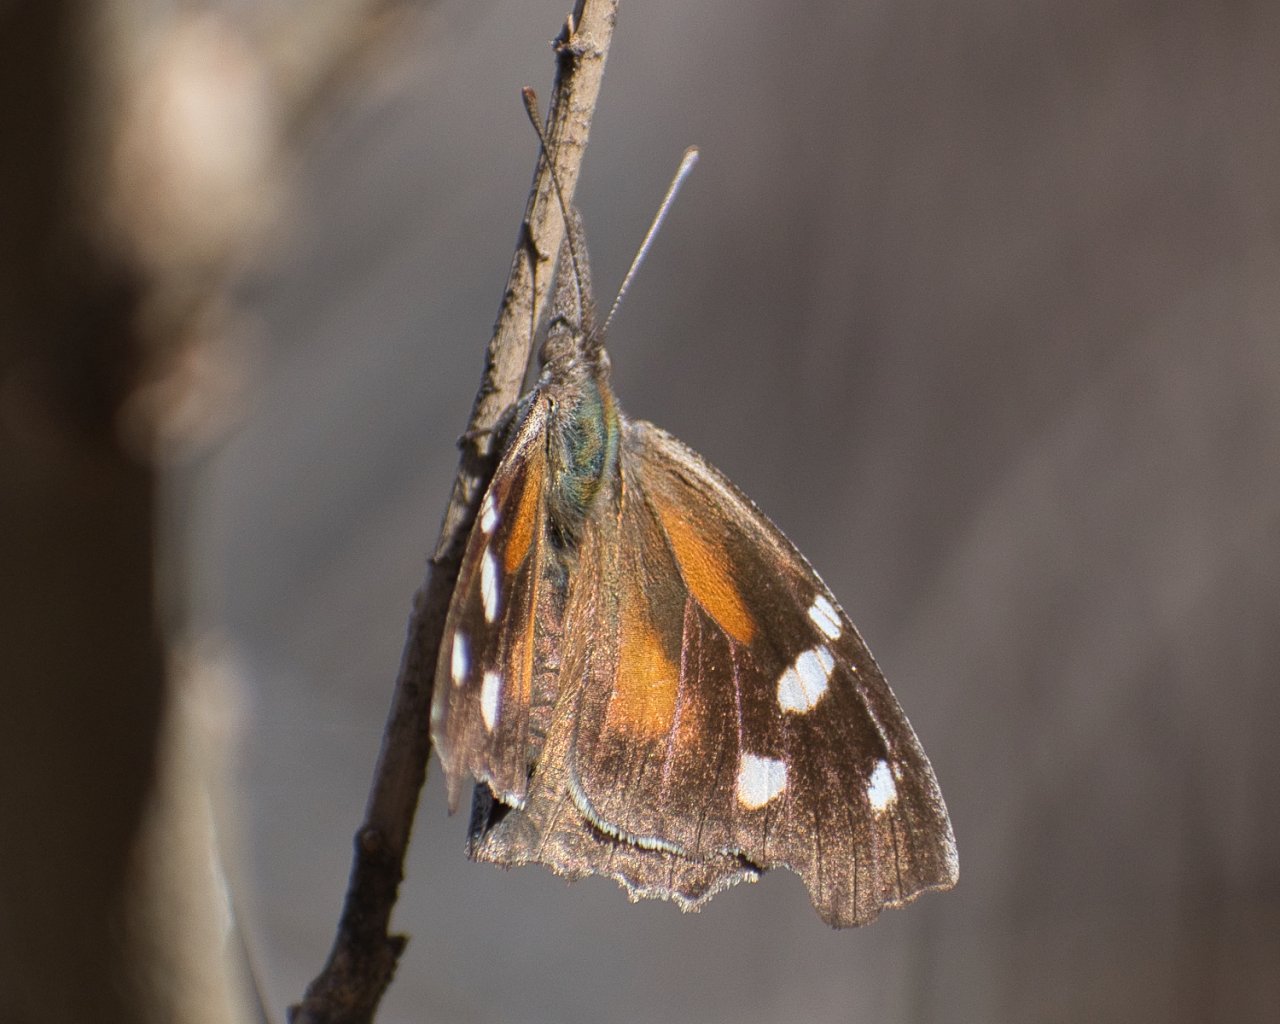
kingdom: Animalia
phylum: Arthropoda
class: Insecta
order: Lepidoptera
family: Nymphalidae
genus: Libytheana
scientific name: Libytheana carinenta
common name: American Snout
